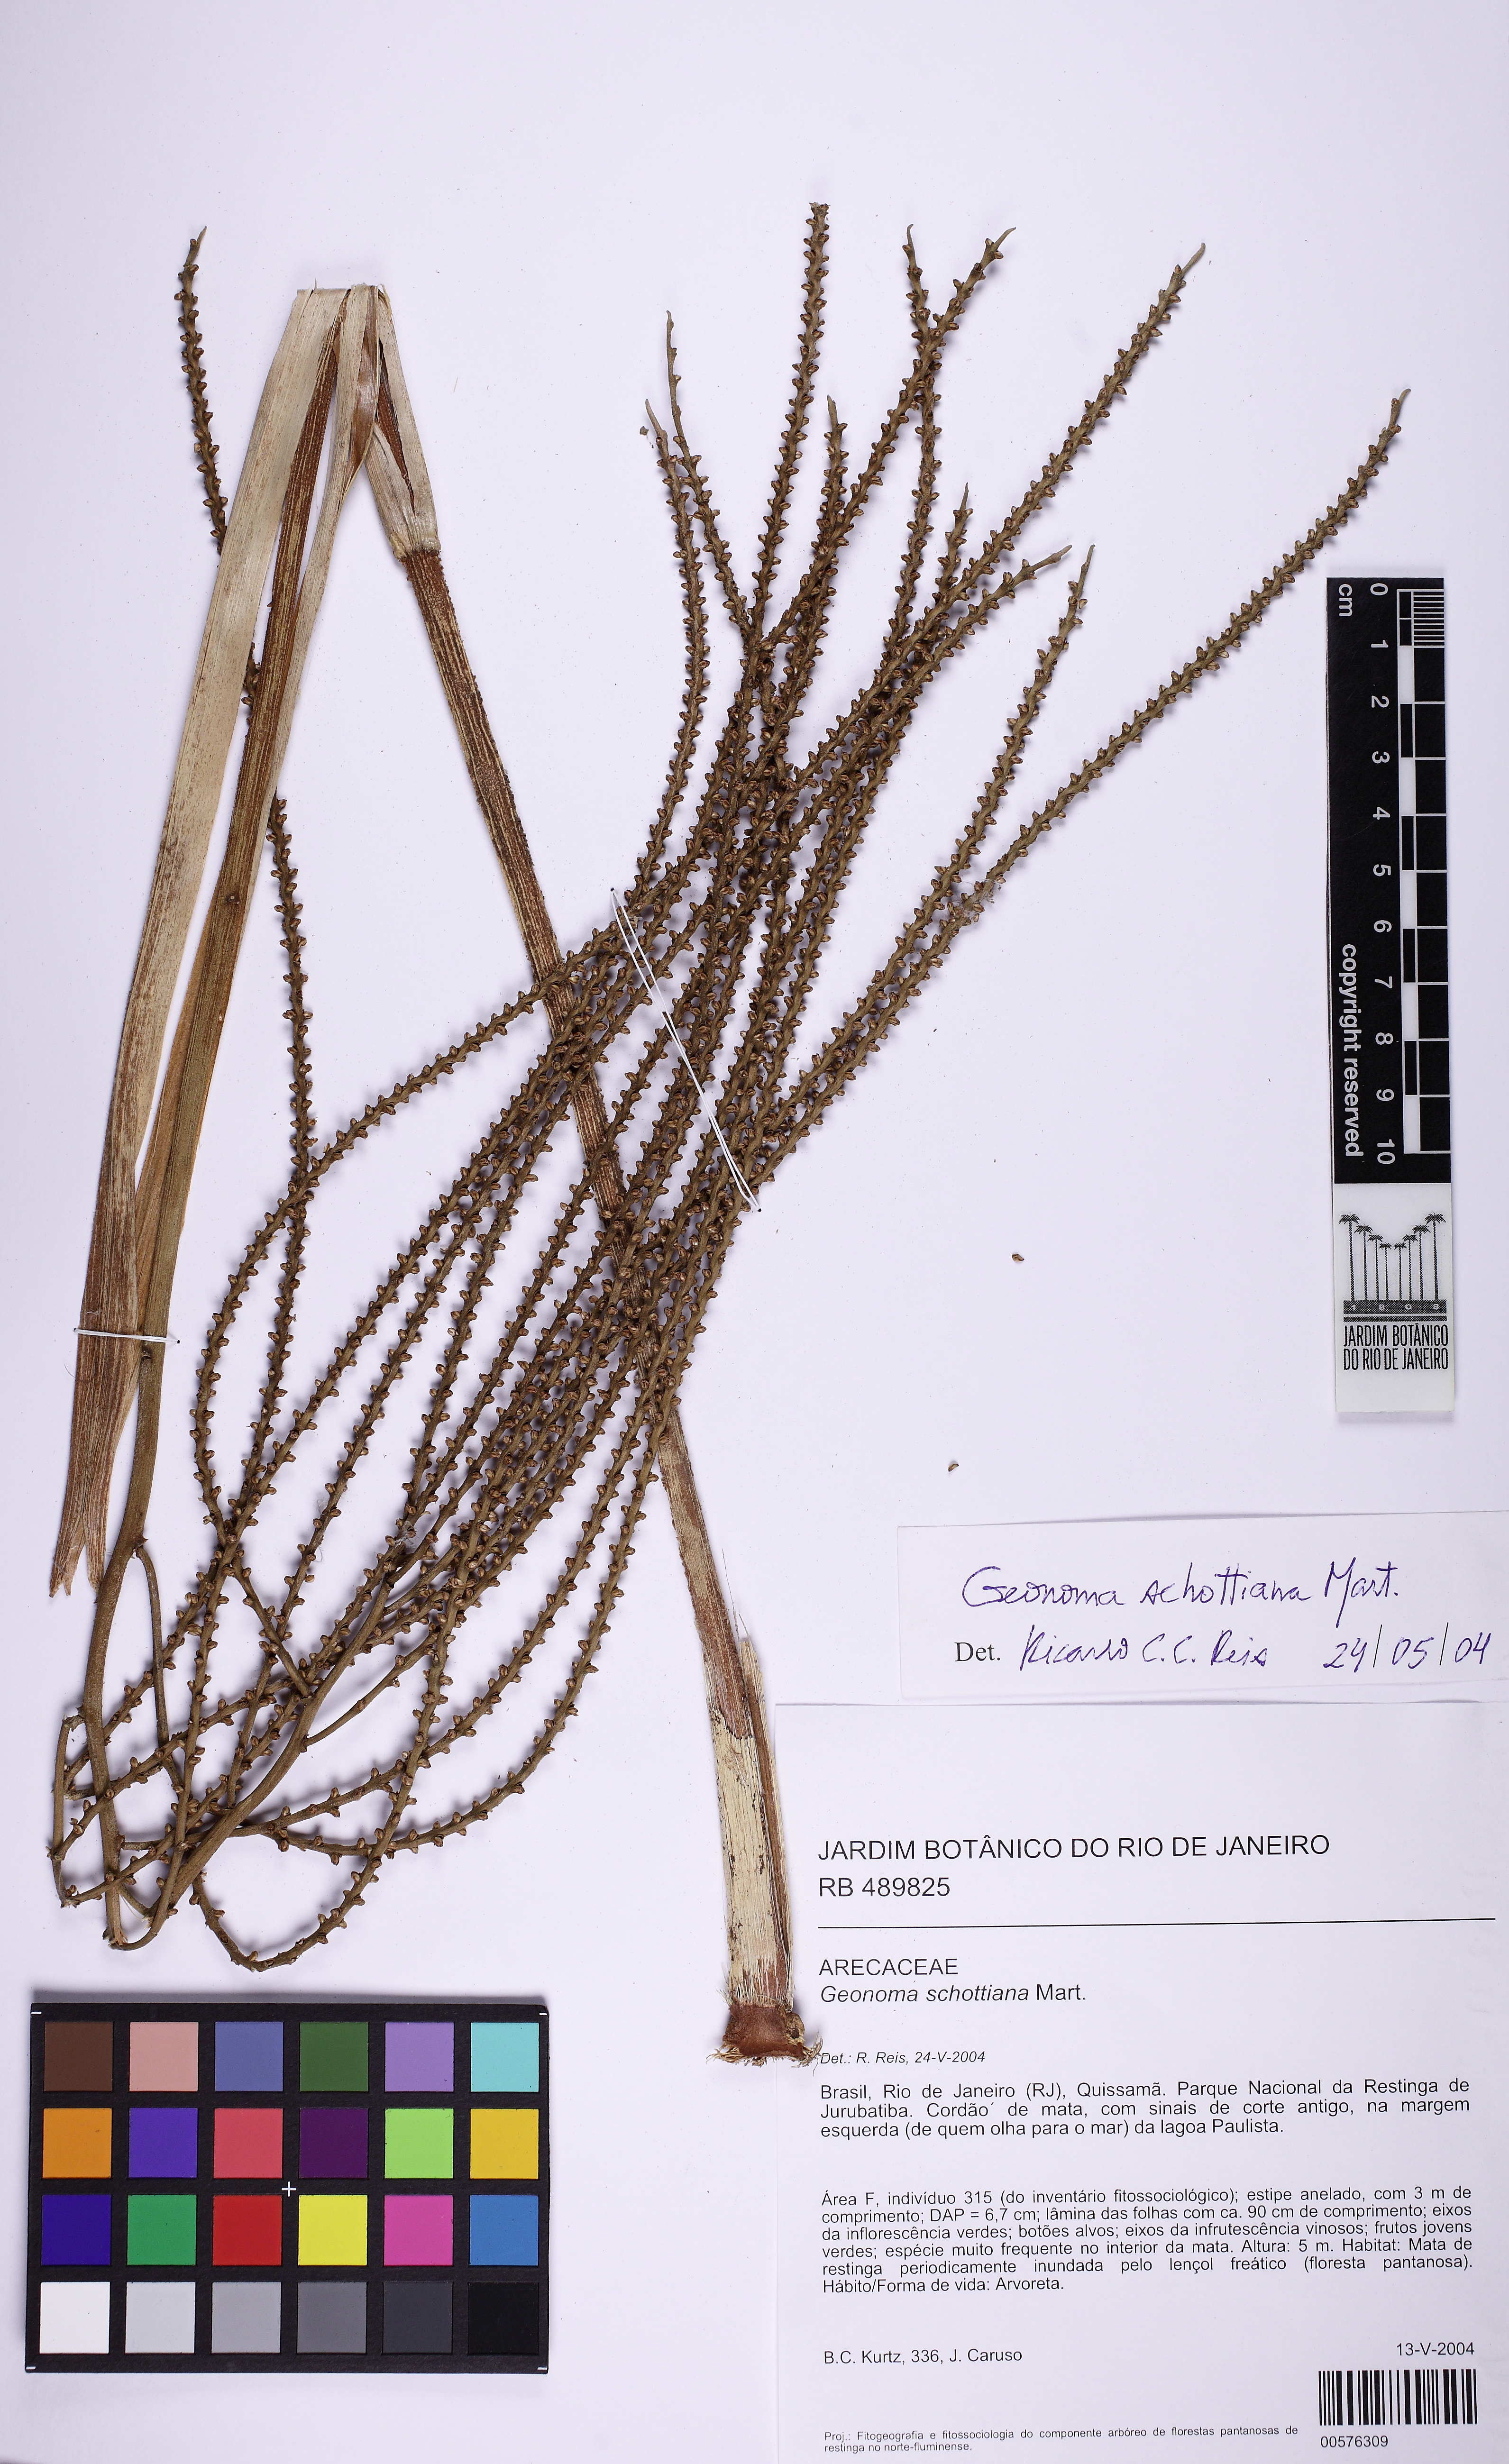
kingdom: Plantae
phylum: Tracheophyta
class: Liliopsida
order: Arecales
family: Arecaceae
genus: Geonoma
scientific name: Geonoma schottiana
